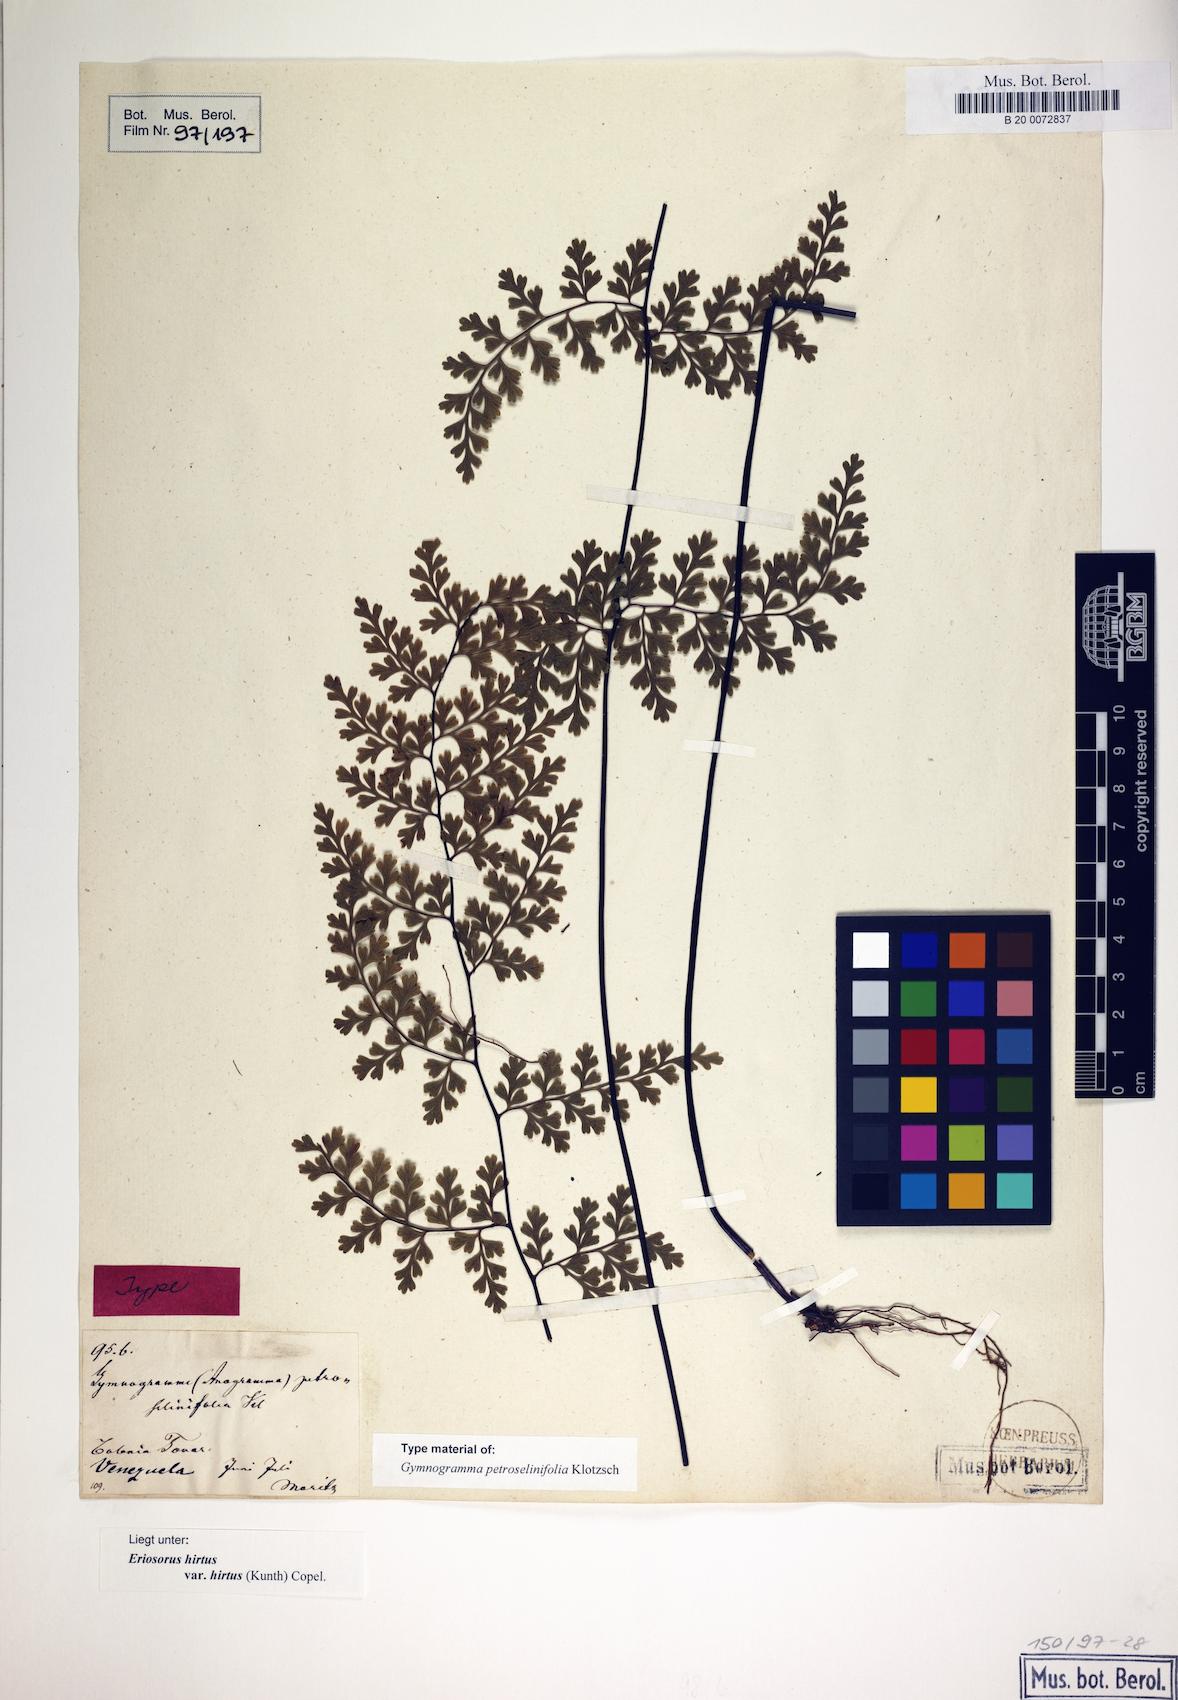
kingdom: Plantae
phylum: Tracheophyta
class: Polypodiopsida
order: Polypodiales
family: Pteridaceae
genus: Jamesonia
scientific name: Jamesonia hirta
